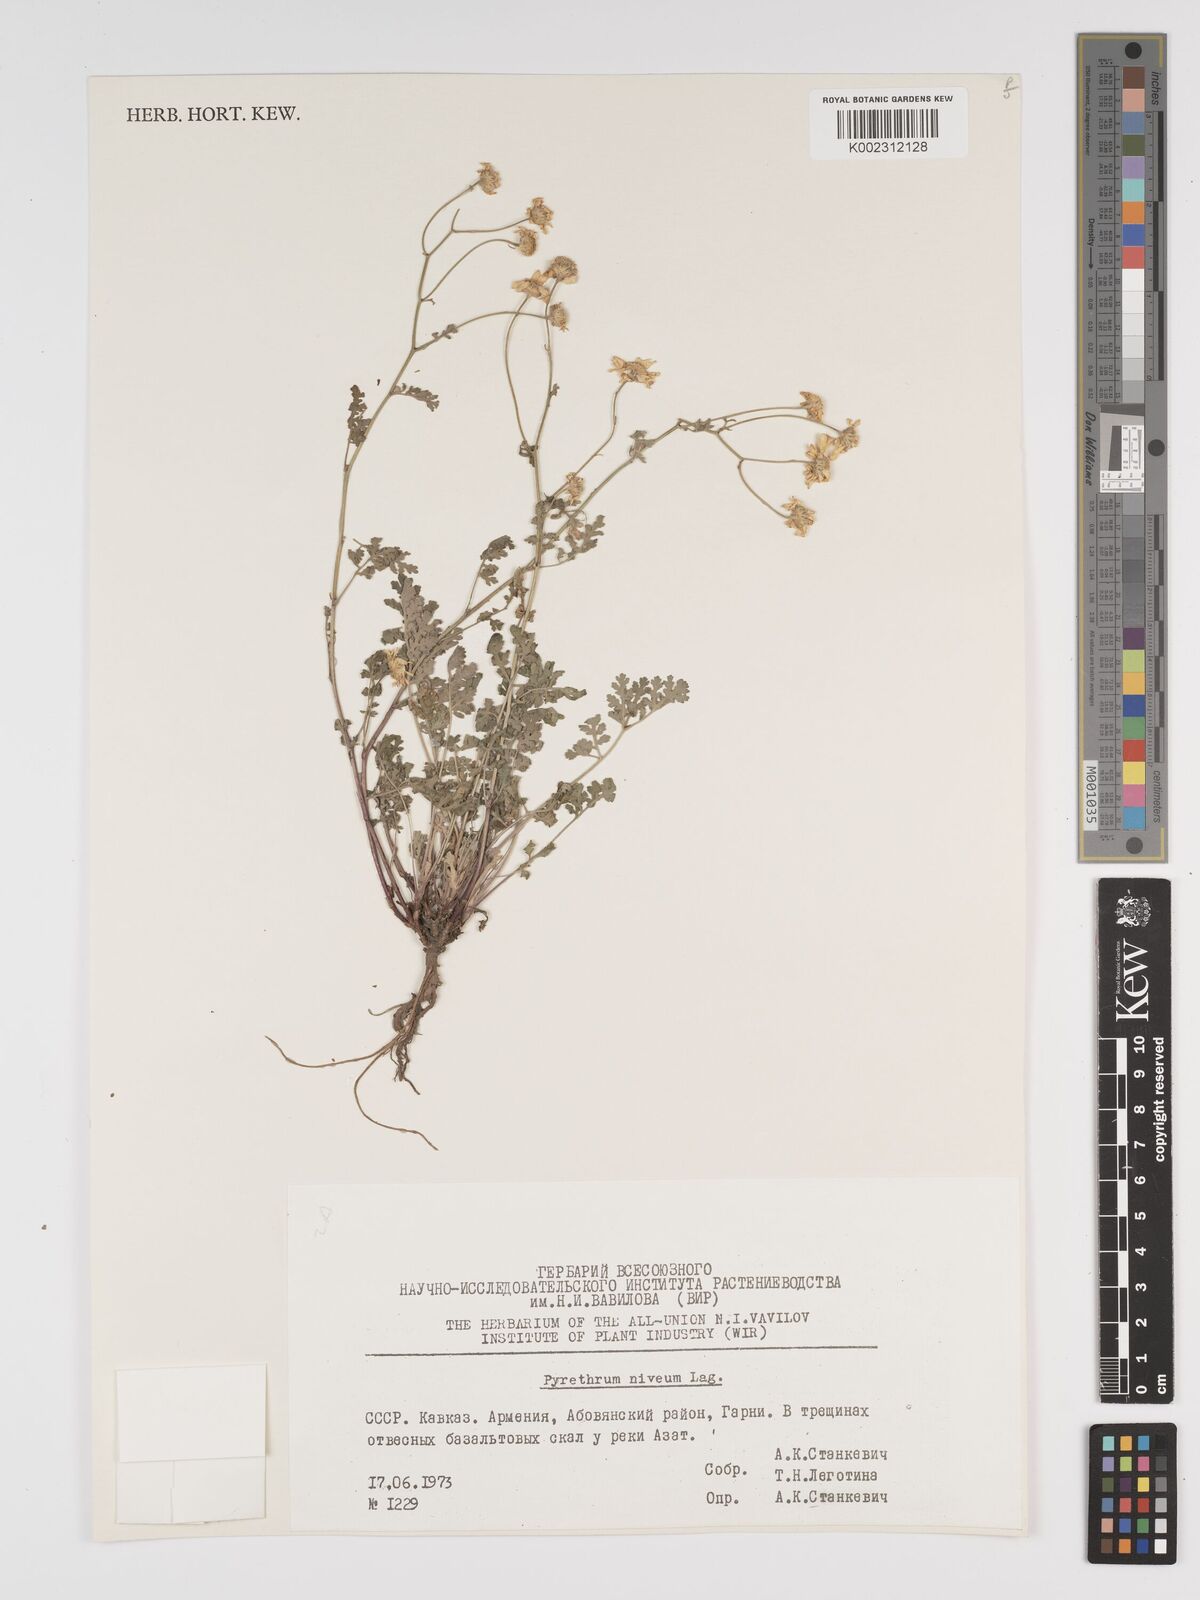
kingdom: Plantae
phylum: Tracheophyta
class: Magnoliopsida
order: Asterales
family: Asteraceae
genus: Tanacetum
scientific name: Tanacetum niveum
